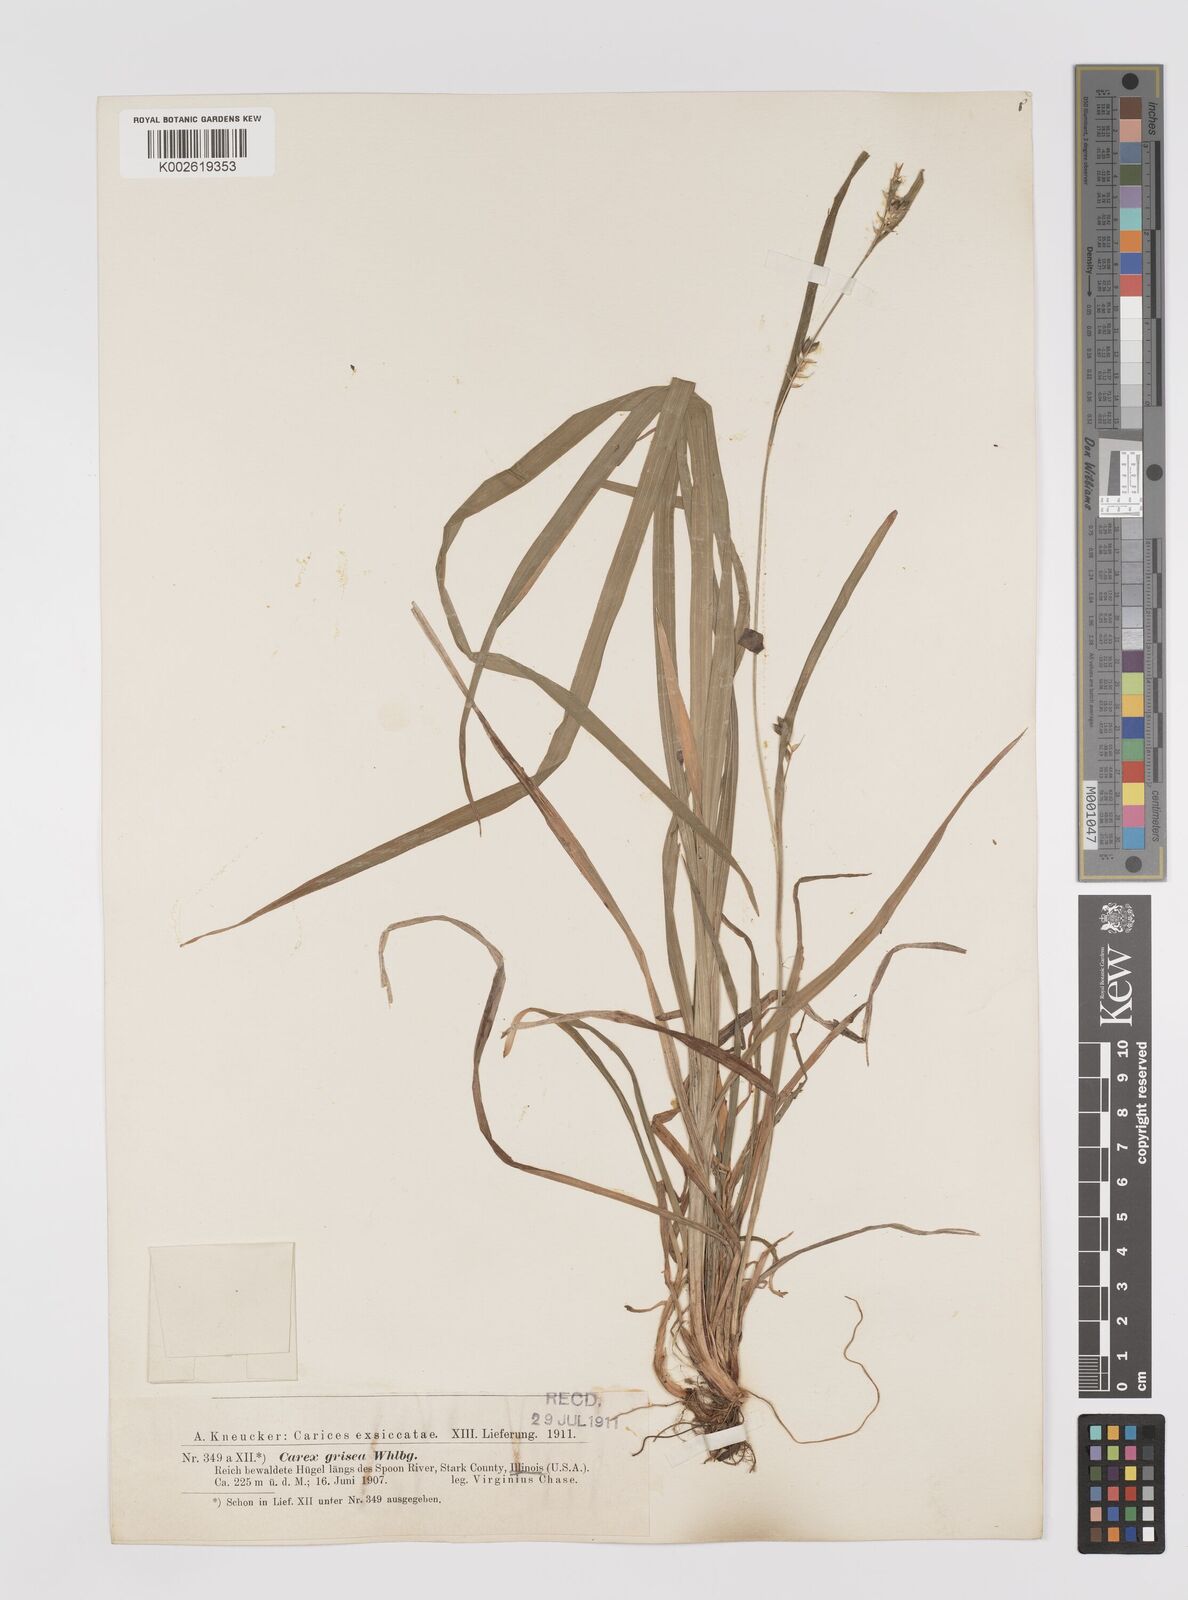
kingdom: Plantae
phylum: Tracheophyta
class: Liliopsida
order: Poales
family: Cyperaceae
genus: Carex
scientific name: Carex grisea
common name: Eastern narrow-leaved sedge
